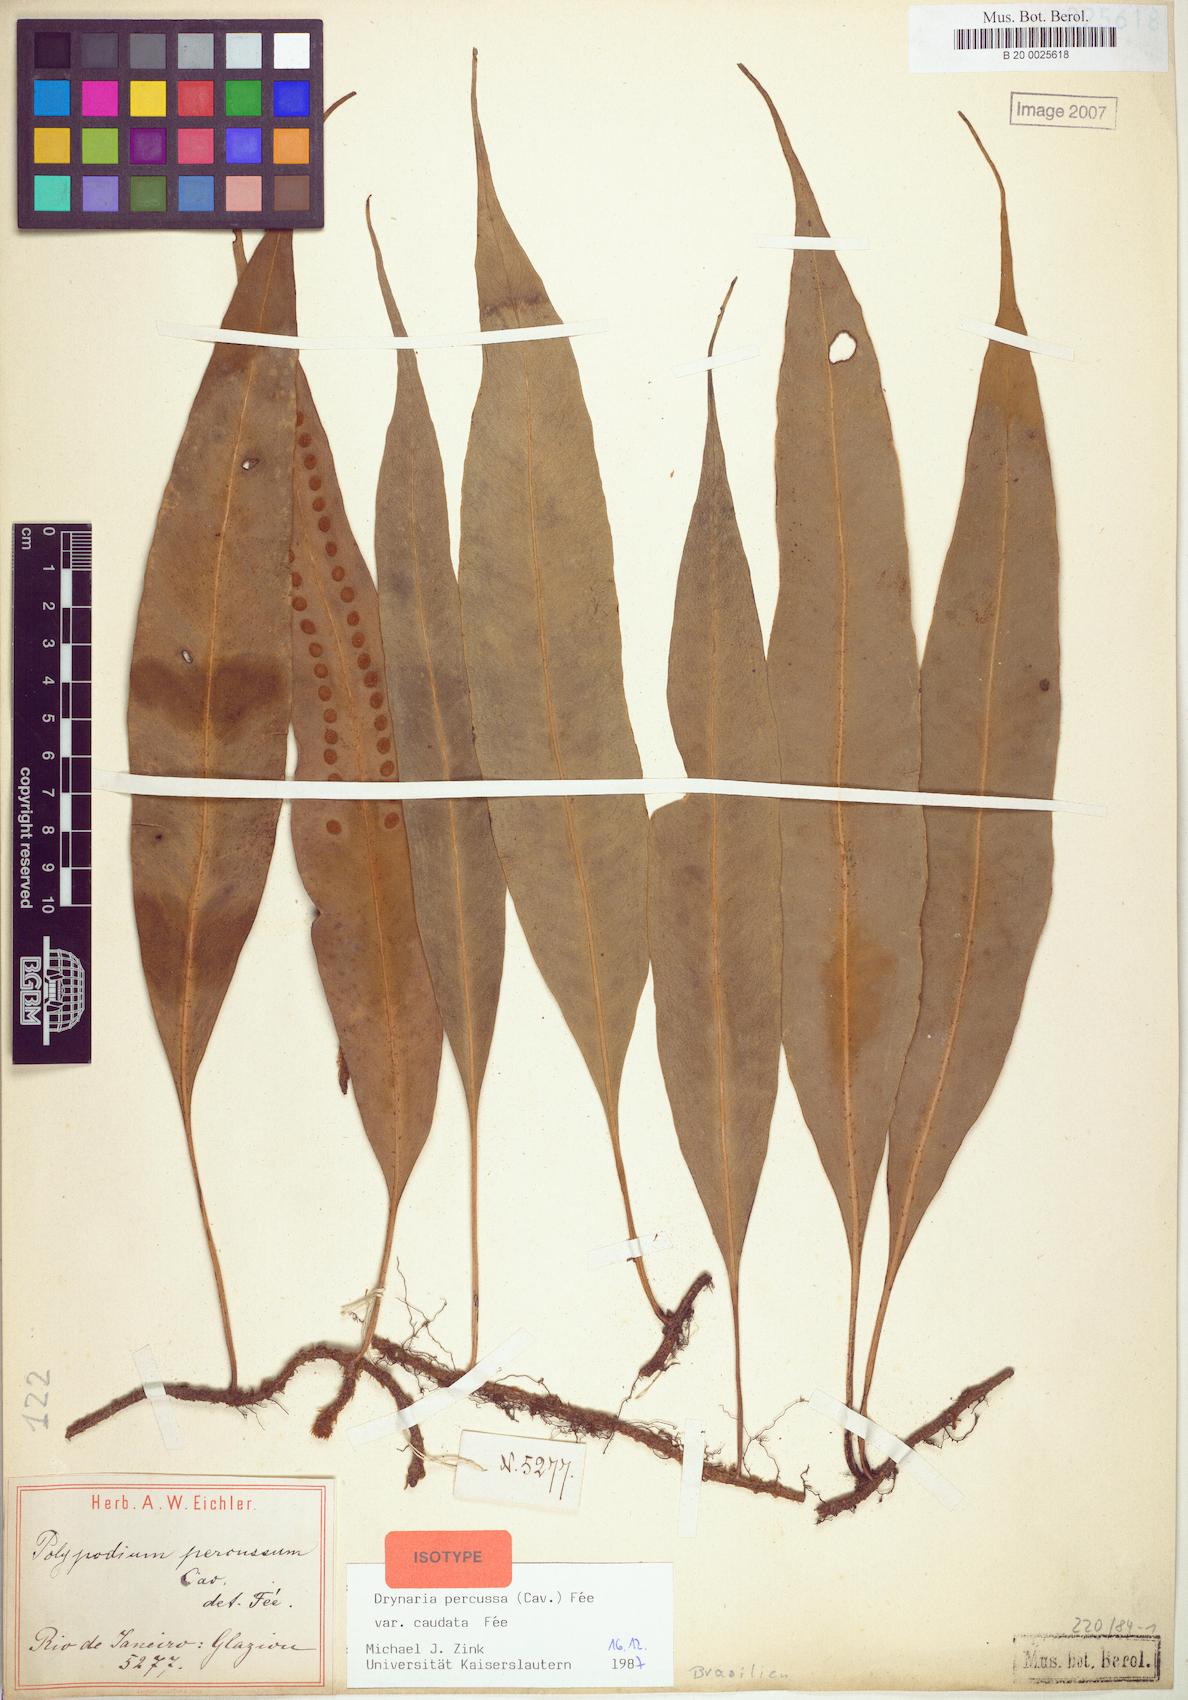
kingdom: Plantae
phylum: Tracheophyta
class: Polypodiopsida
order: Polypodiales
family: Polypodiaceae
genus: Microgramma
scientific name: Microgramma percussa
